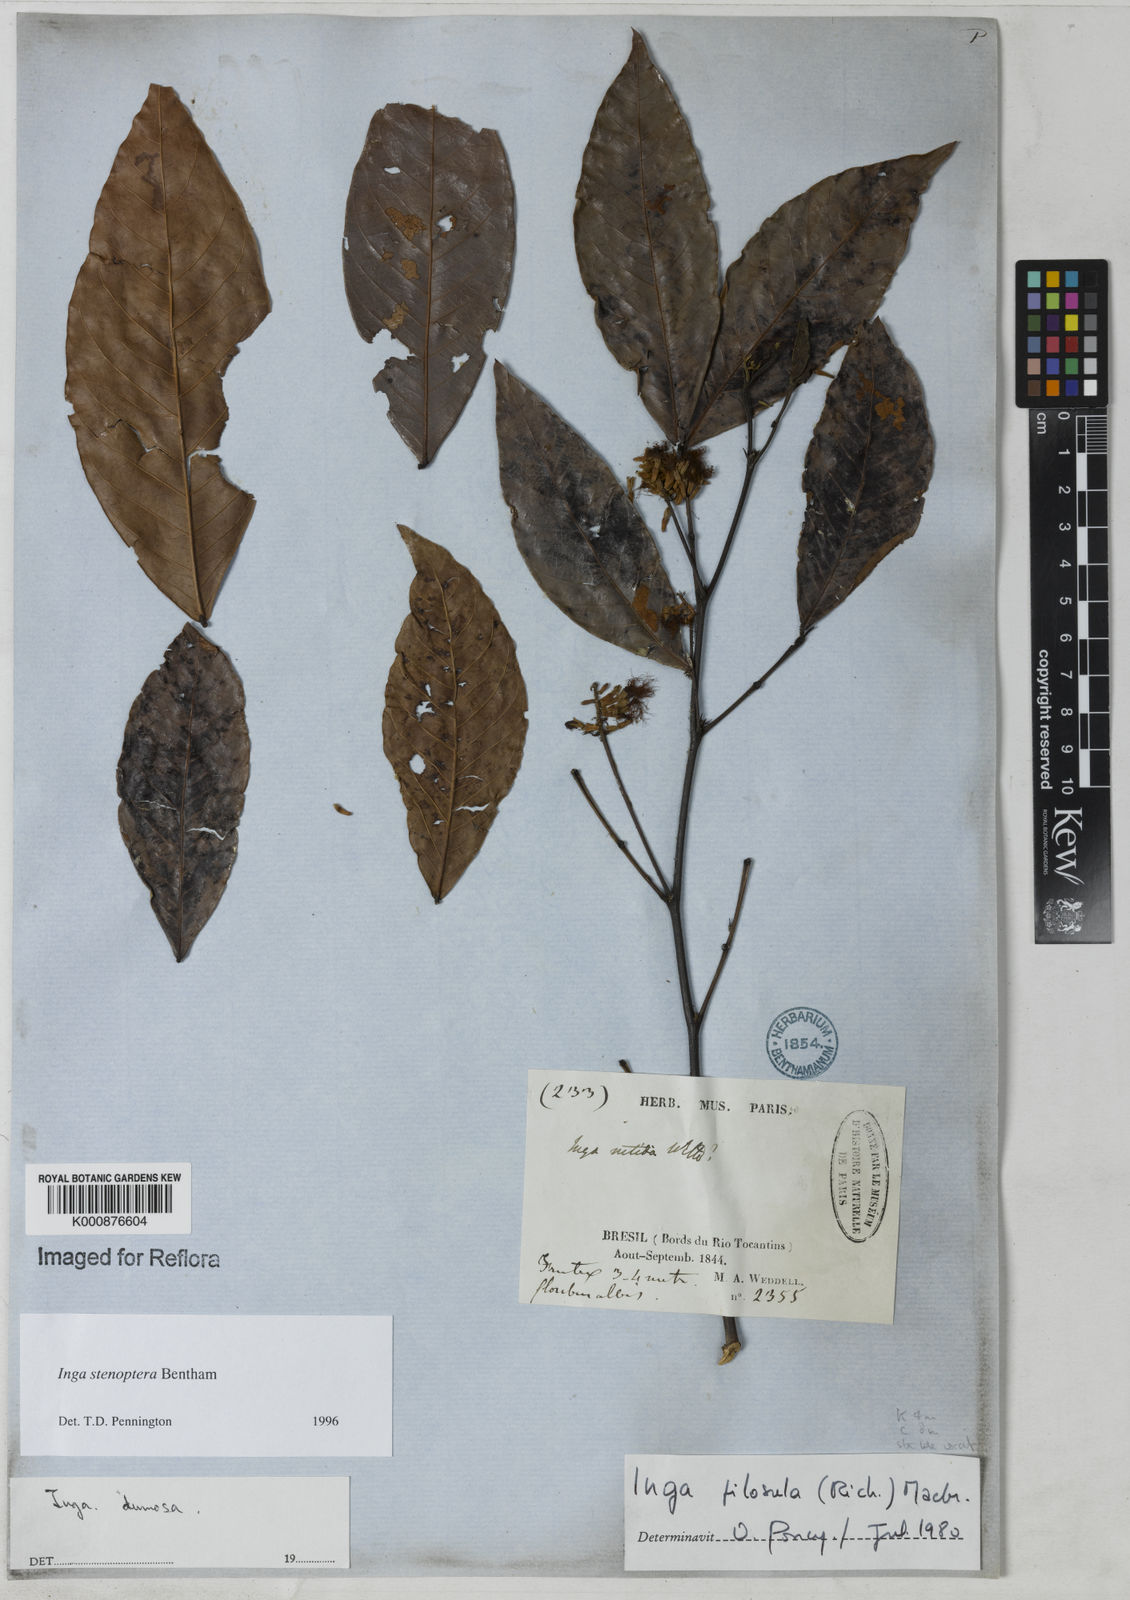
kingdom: Plantae
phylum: Tracheophyta
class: Magnoliopsida
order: Fabales
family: Fabaceae
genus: Inga
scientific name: Inga stenoptera
